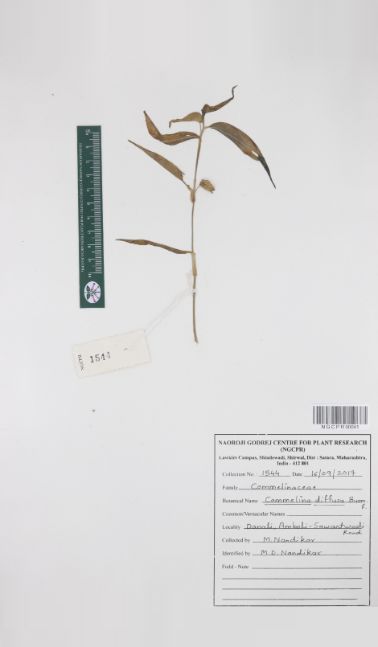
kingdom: Plantae
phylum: Tracheophyta
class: Liliopsida
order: Commelinales
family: Commelinaceae
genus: Commelina
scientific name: Commelina diffusa
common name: Climbing dayflower
